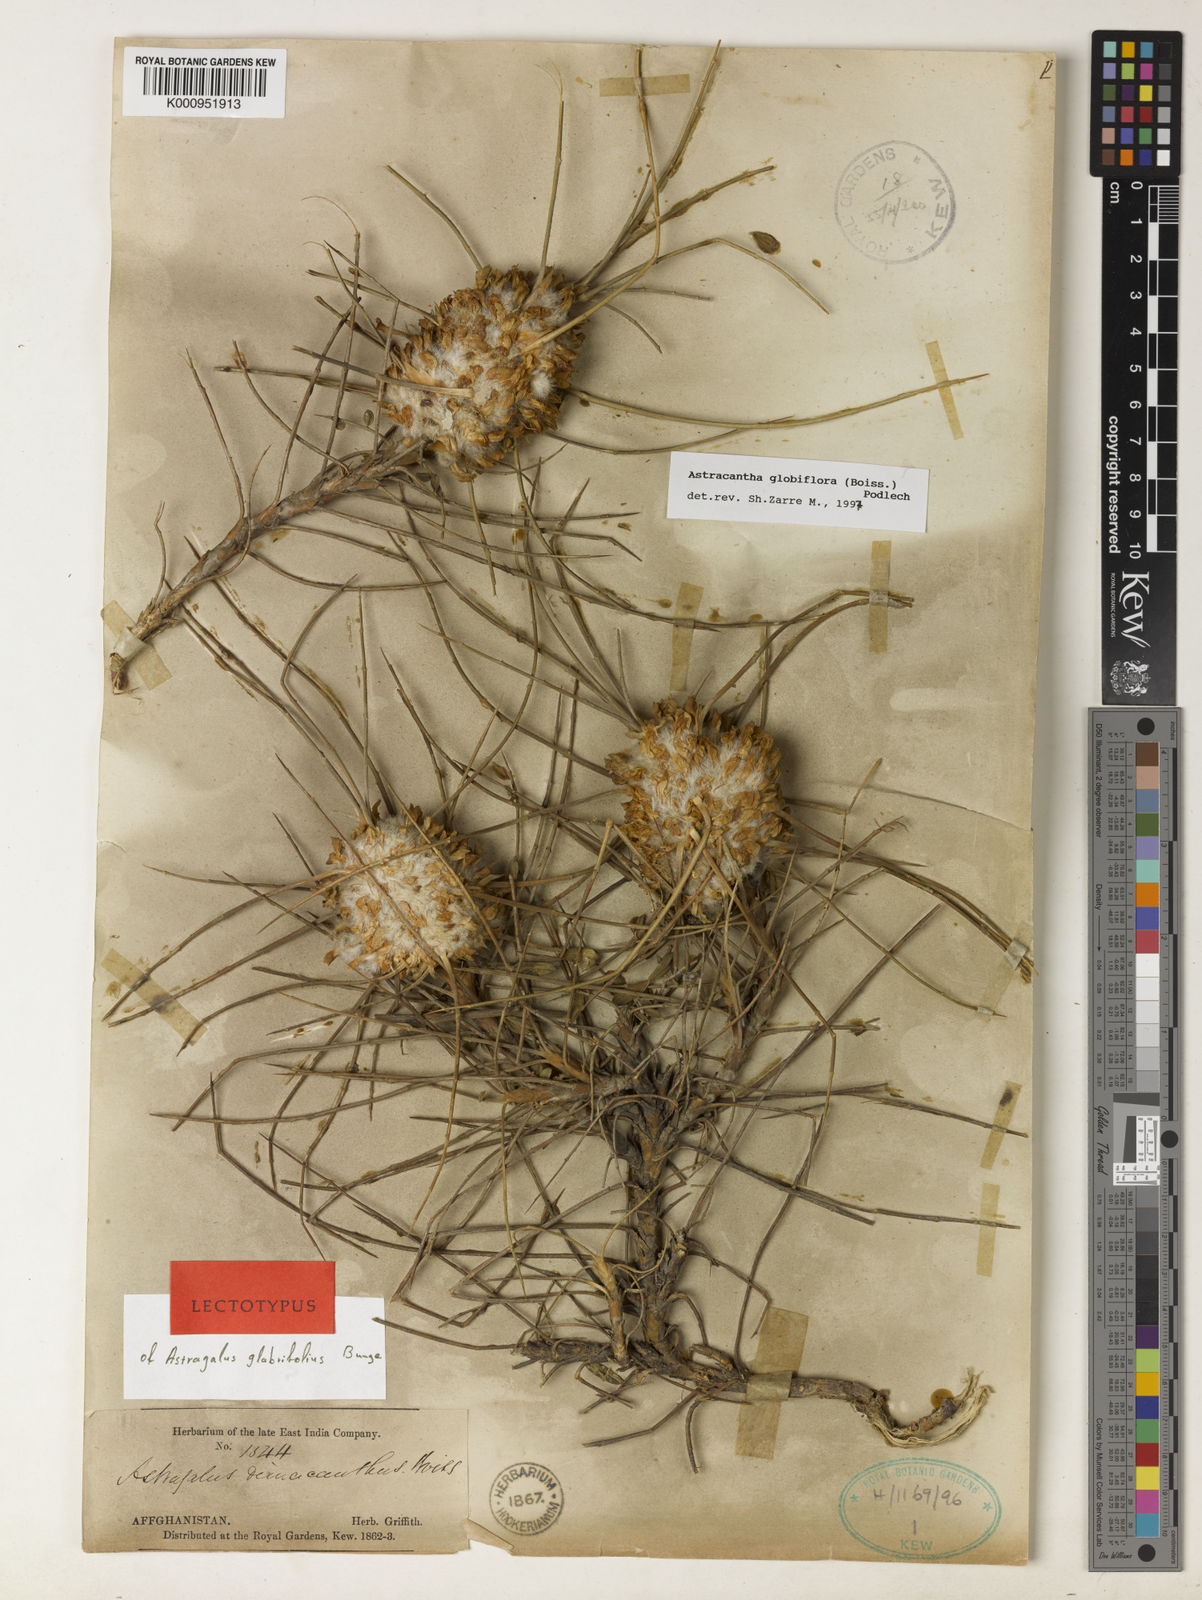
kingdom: Plantae
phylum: Tracheophyta
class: Magnoliopsida
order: Fabales
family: Fabaceae
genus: Astragalus
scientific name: Astragalus globiflorus
